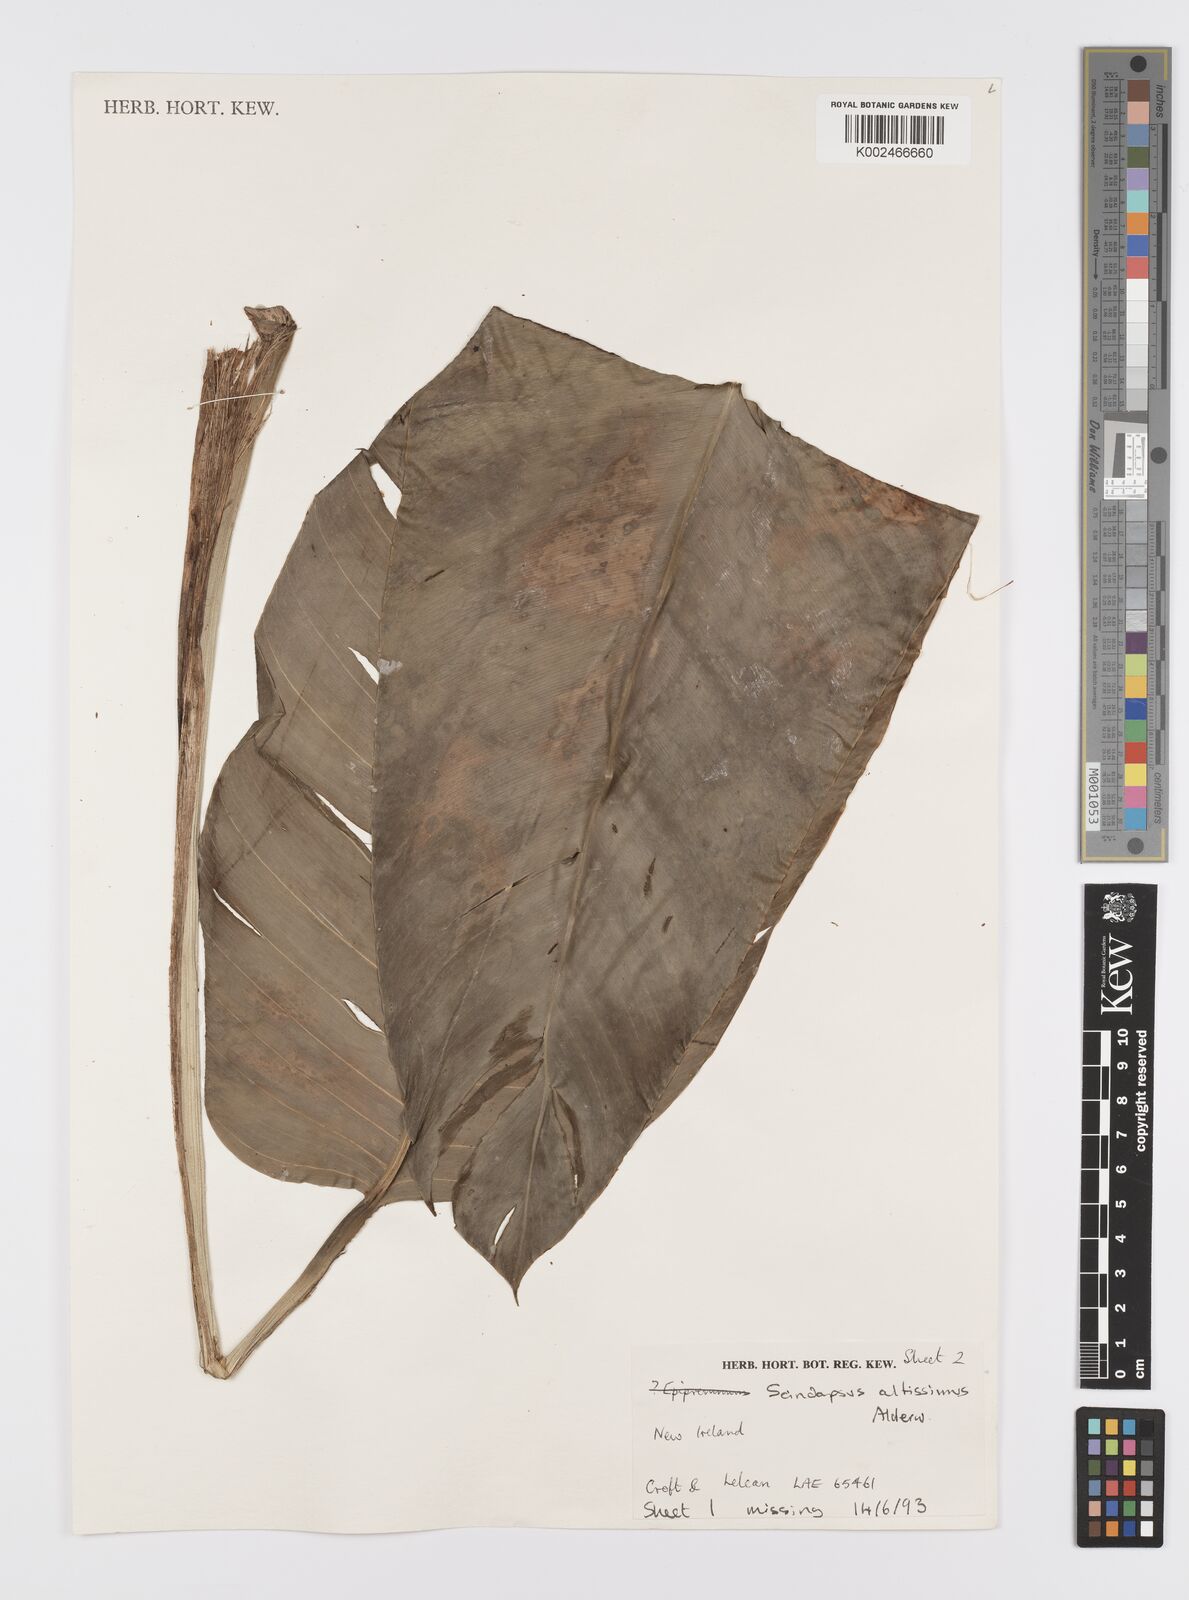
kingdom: Plantae
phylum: Tracheophyta
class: Liliopsida
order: Alismatales
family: Araceae
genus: Scindapsus
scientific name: Scindapsus altissimus
